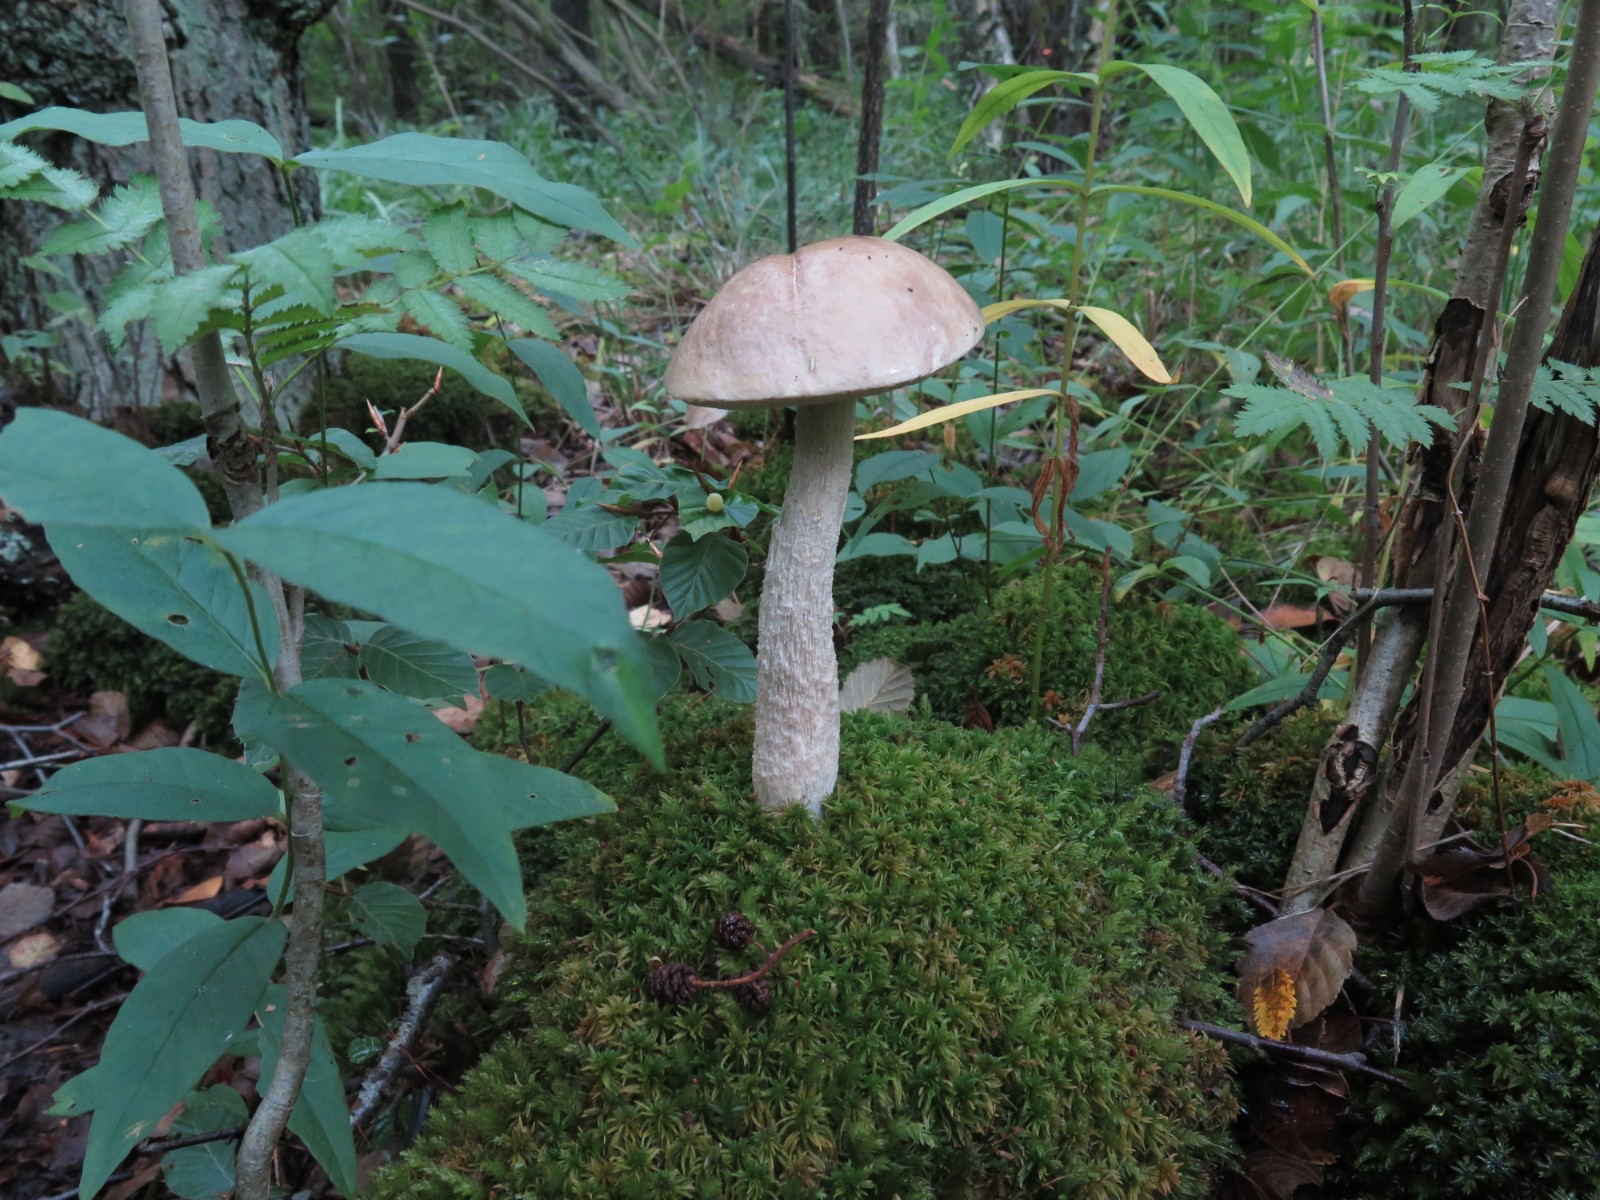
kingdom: Fungi
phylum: Basidiomycota
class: Agaricomycetes
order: Boletales
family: Boletaceae
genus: Leccinum
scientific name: Leccinum scabrum
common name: hvid skælrørhat
